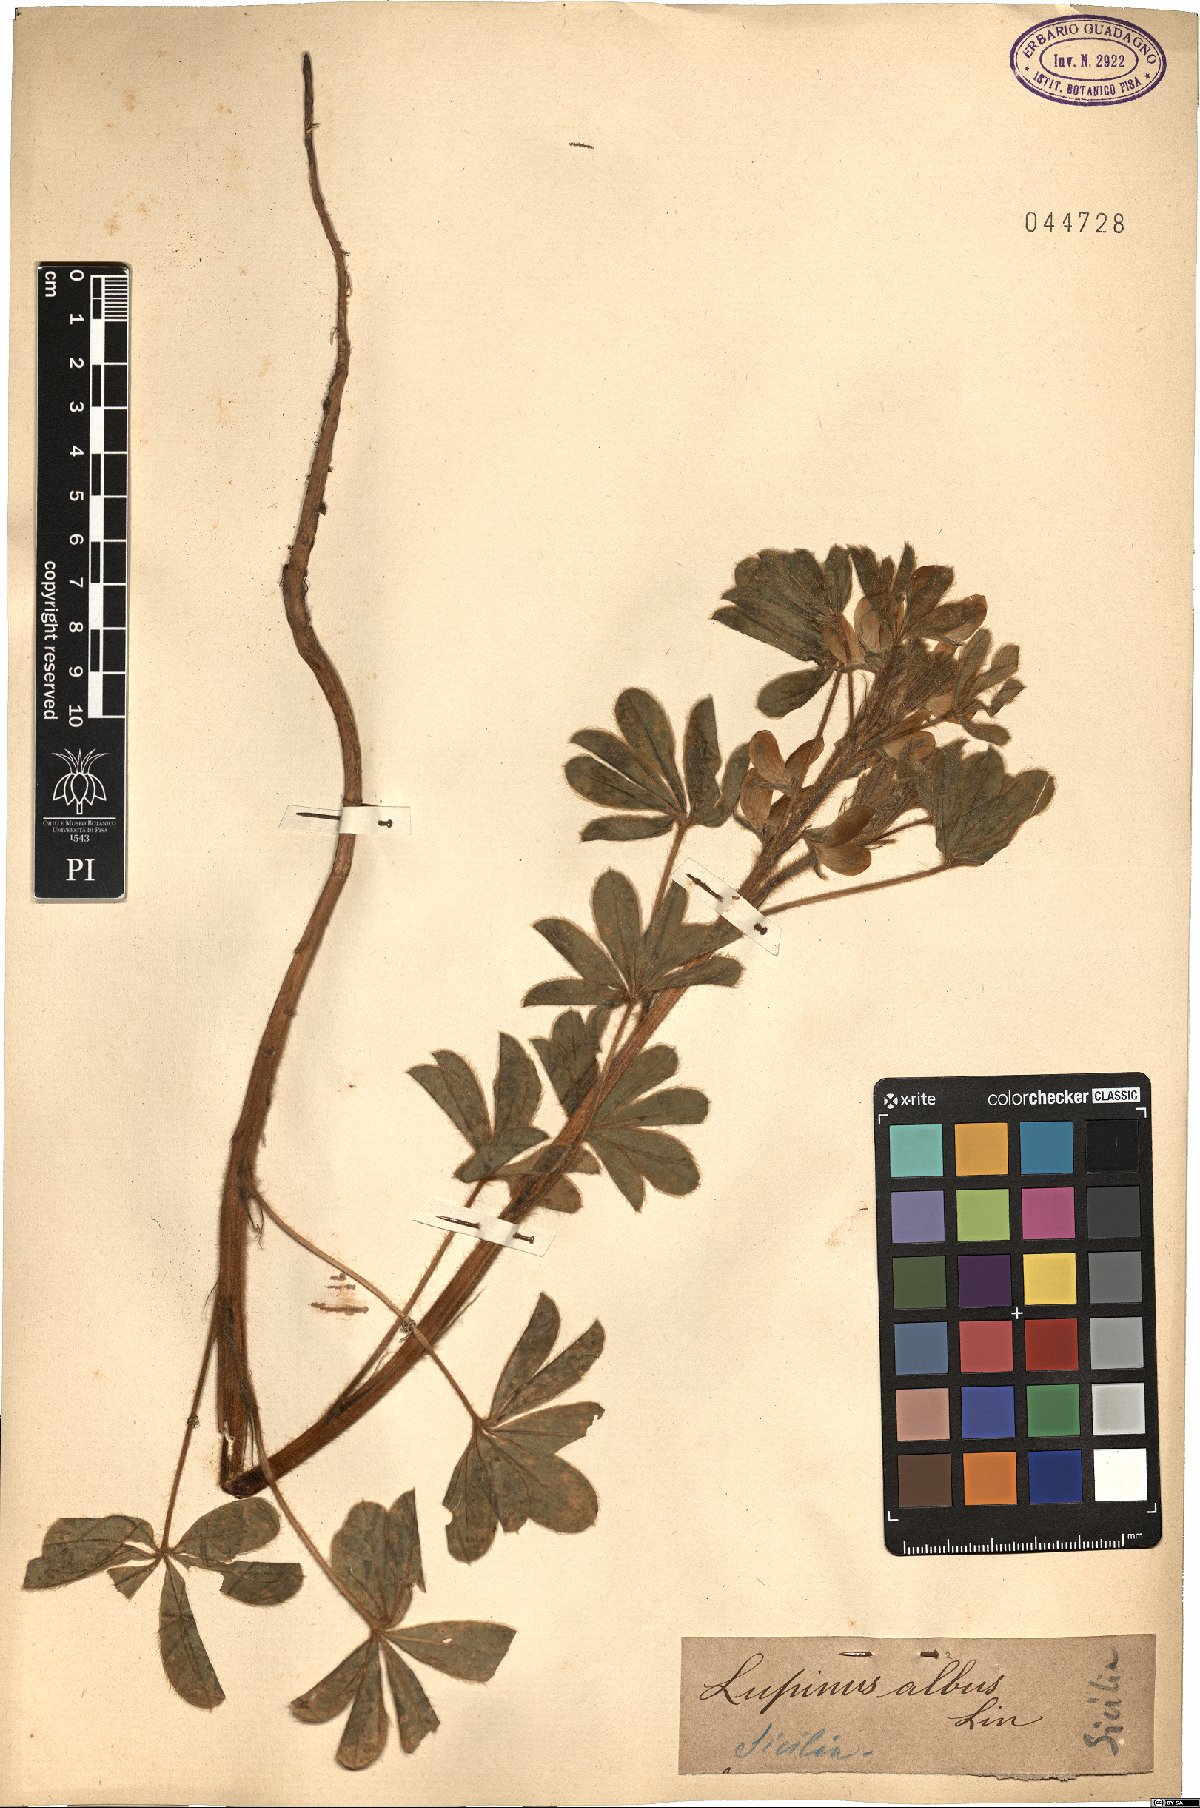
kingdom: Plantae
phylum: Tracheophyta
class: Magnoliopsida
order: Fabales
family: Fabaceae
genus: Lupinus
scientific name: Lupinus albus
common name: White lupin
